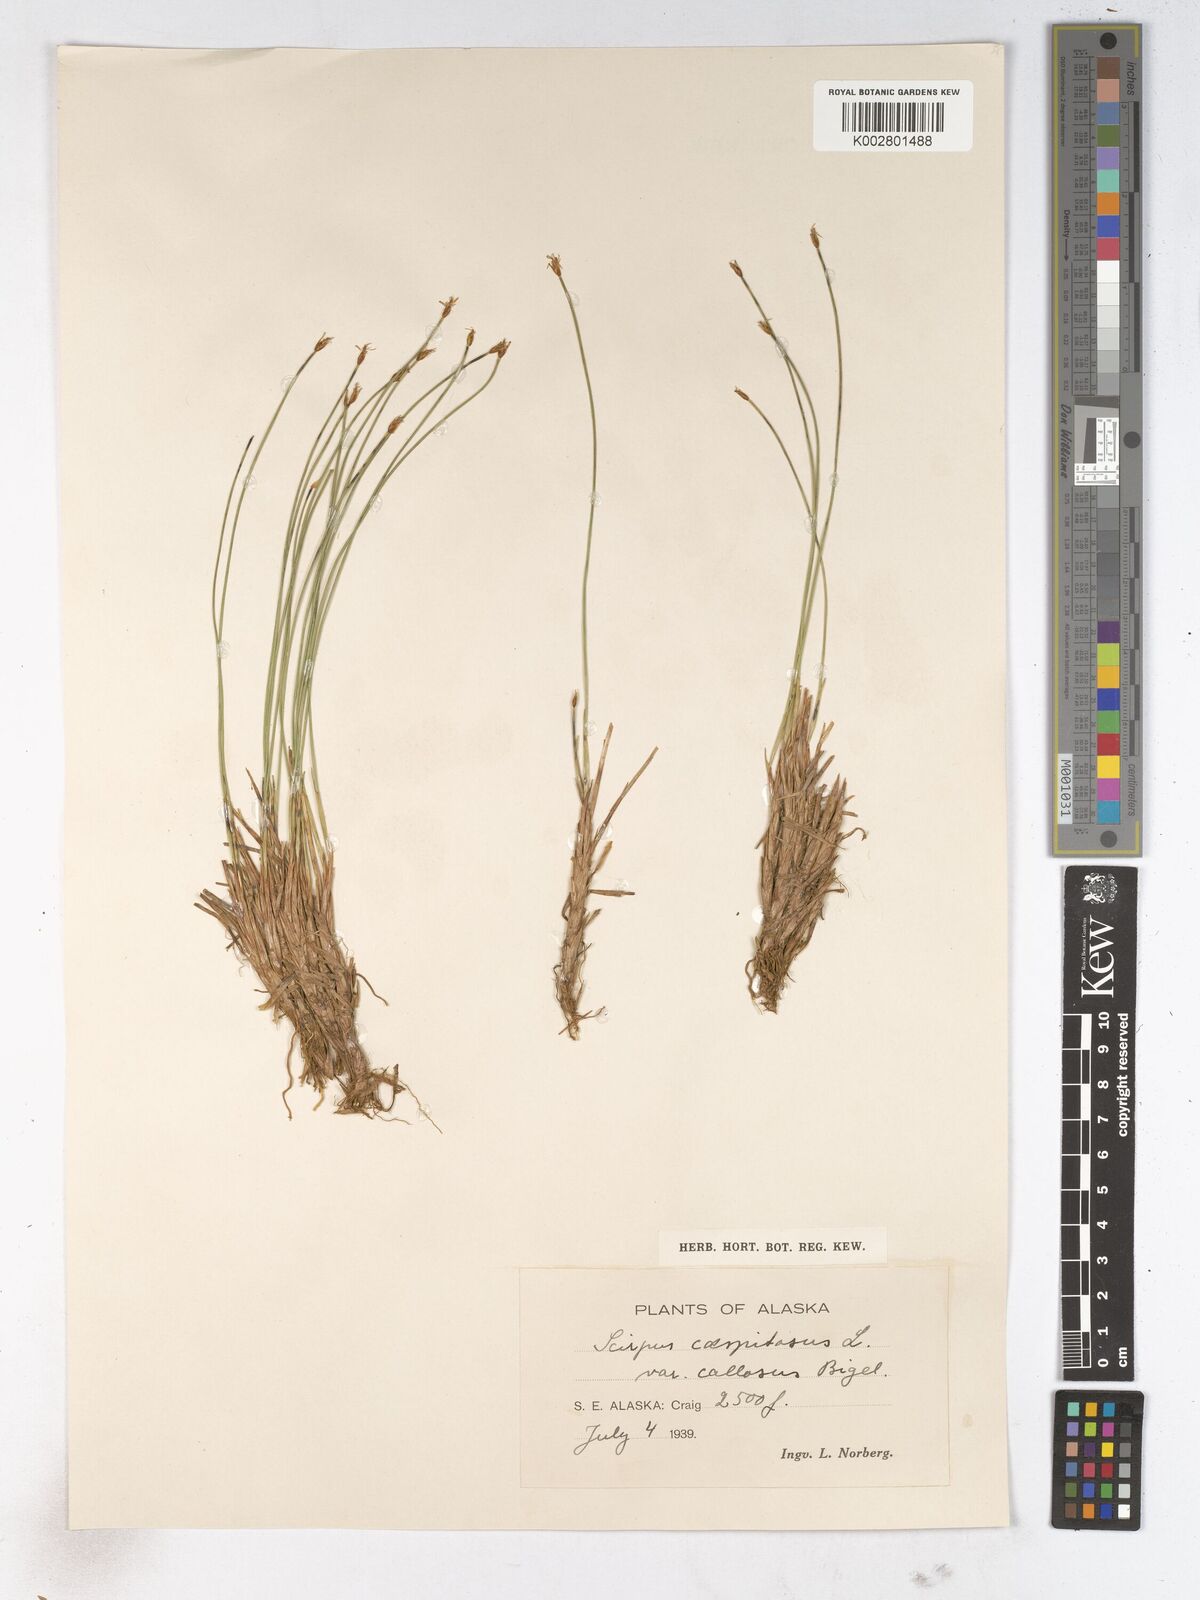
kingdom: Plantae
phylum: Tracheophyta
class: Liliopsida
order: Poales
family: Cyperaceae
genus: Trichophorum
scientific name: Trichophorum cespitosum
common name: Cespitose bulrush
